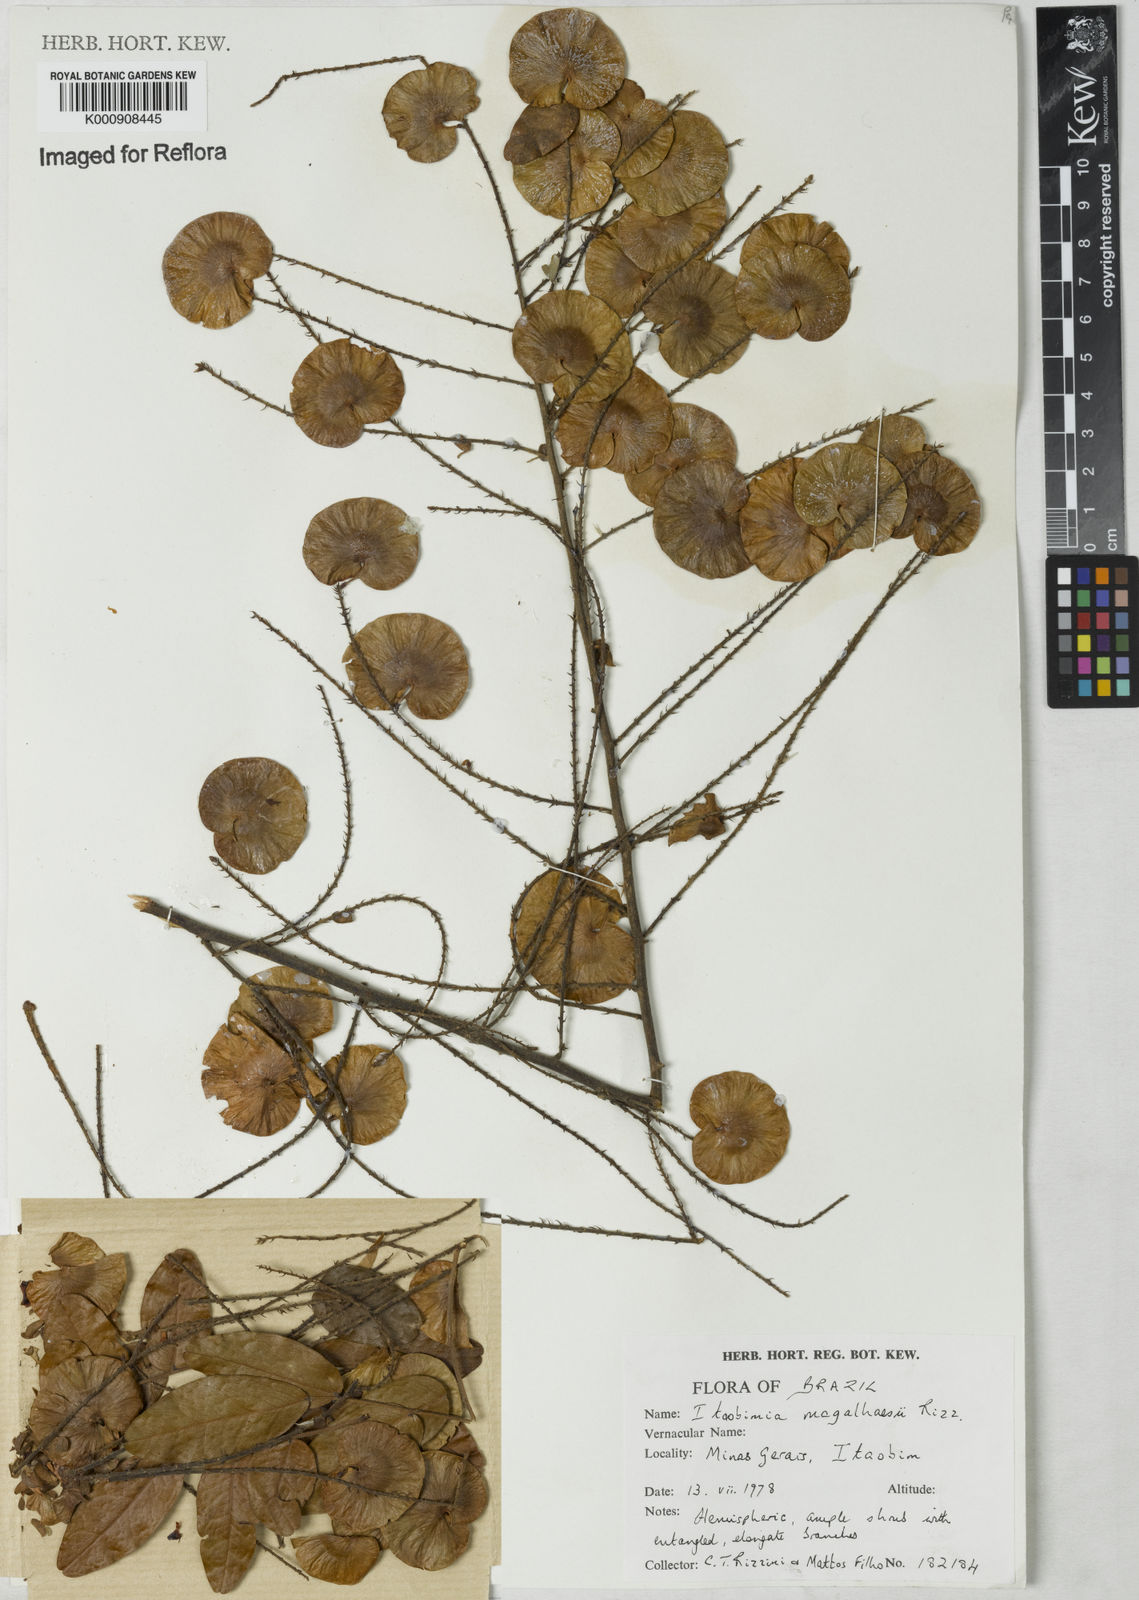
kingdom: Plantae
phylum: Tracheophyta
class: Magnoliopsida
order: Fabales
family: Fabaceae
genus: Riedeliella
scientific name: Riedeliella magalhaesii
